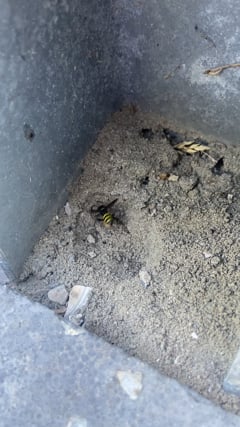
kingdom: Animalia
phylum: Arthropoda
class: Insecta
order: Hymenoptera
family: Crabronidae
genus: Gorytes
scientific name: Gorytes laticinctus
